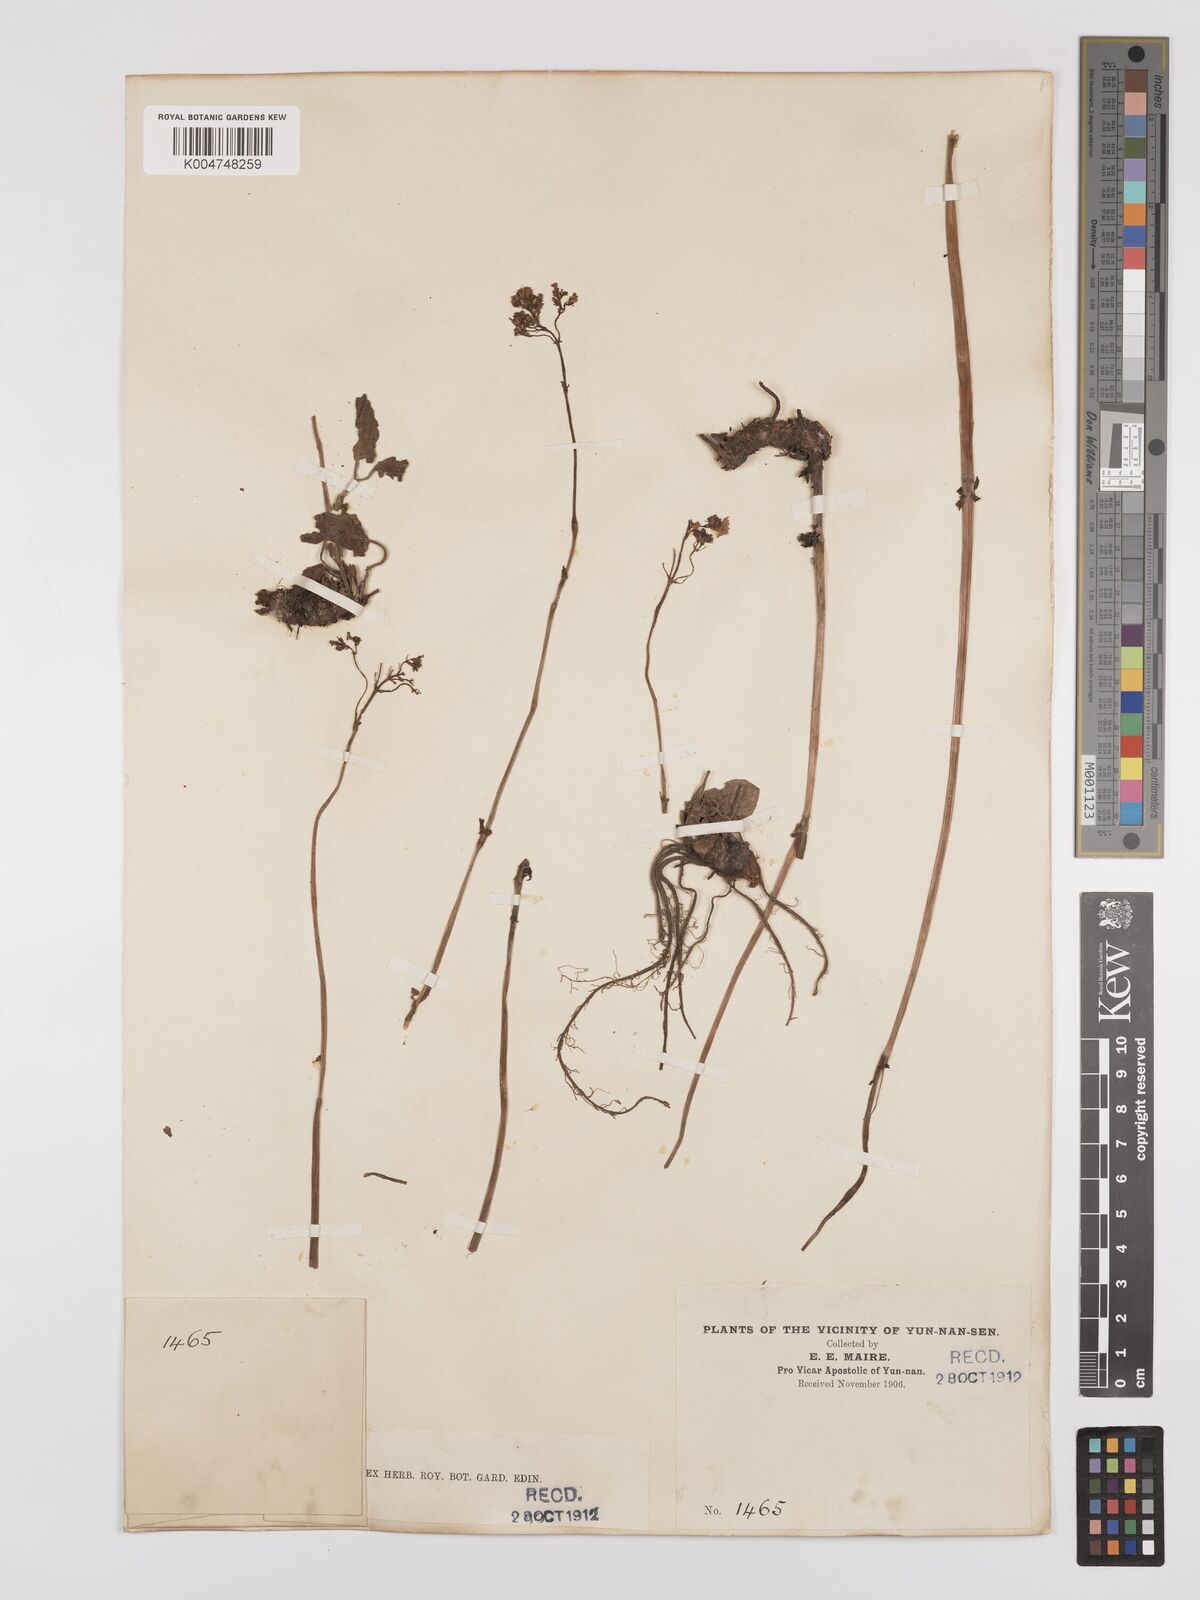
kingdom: Plantae
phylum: Tracheophyta
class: Magnoliopsida
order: Dipsacales
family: Caprifoliaceae
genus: Valeriana
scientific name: Valeriana
